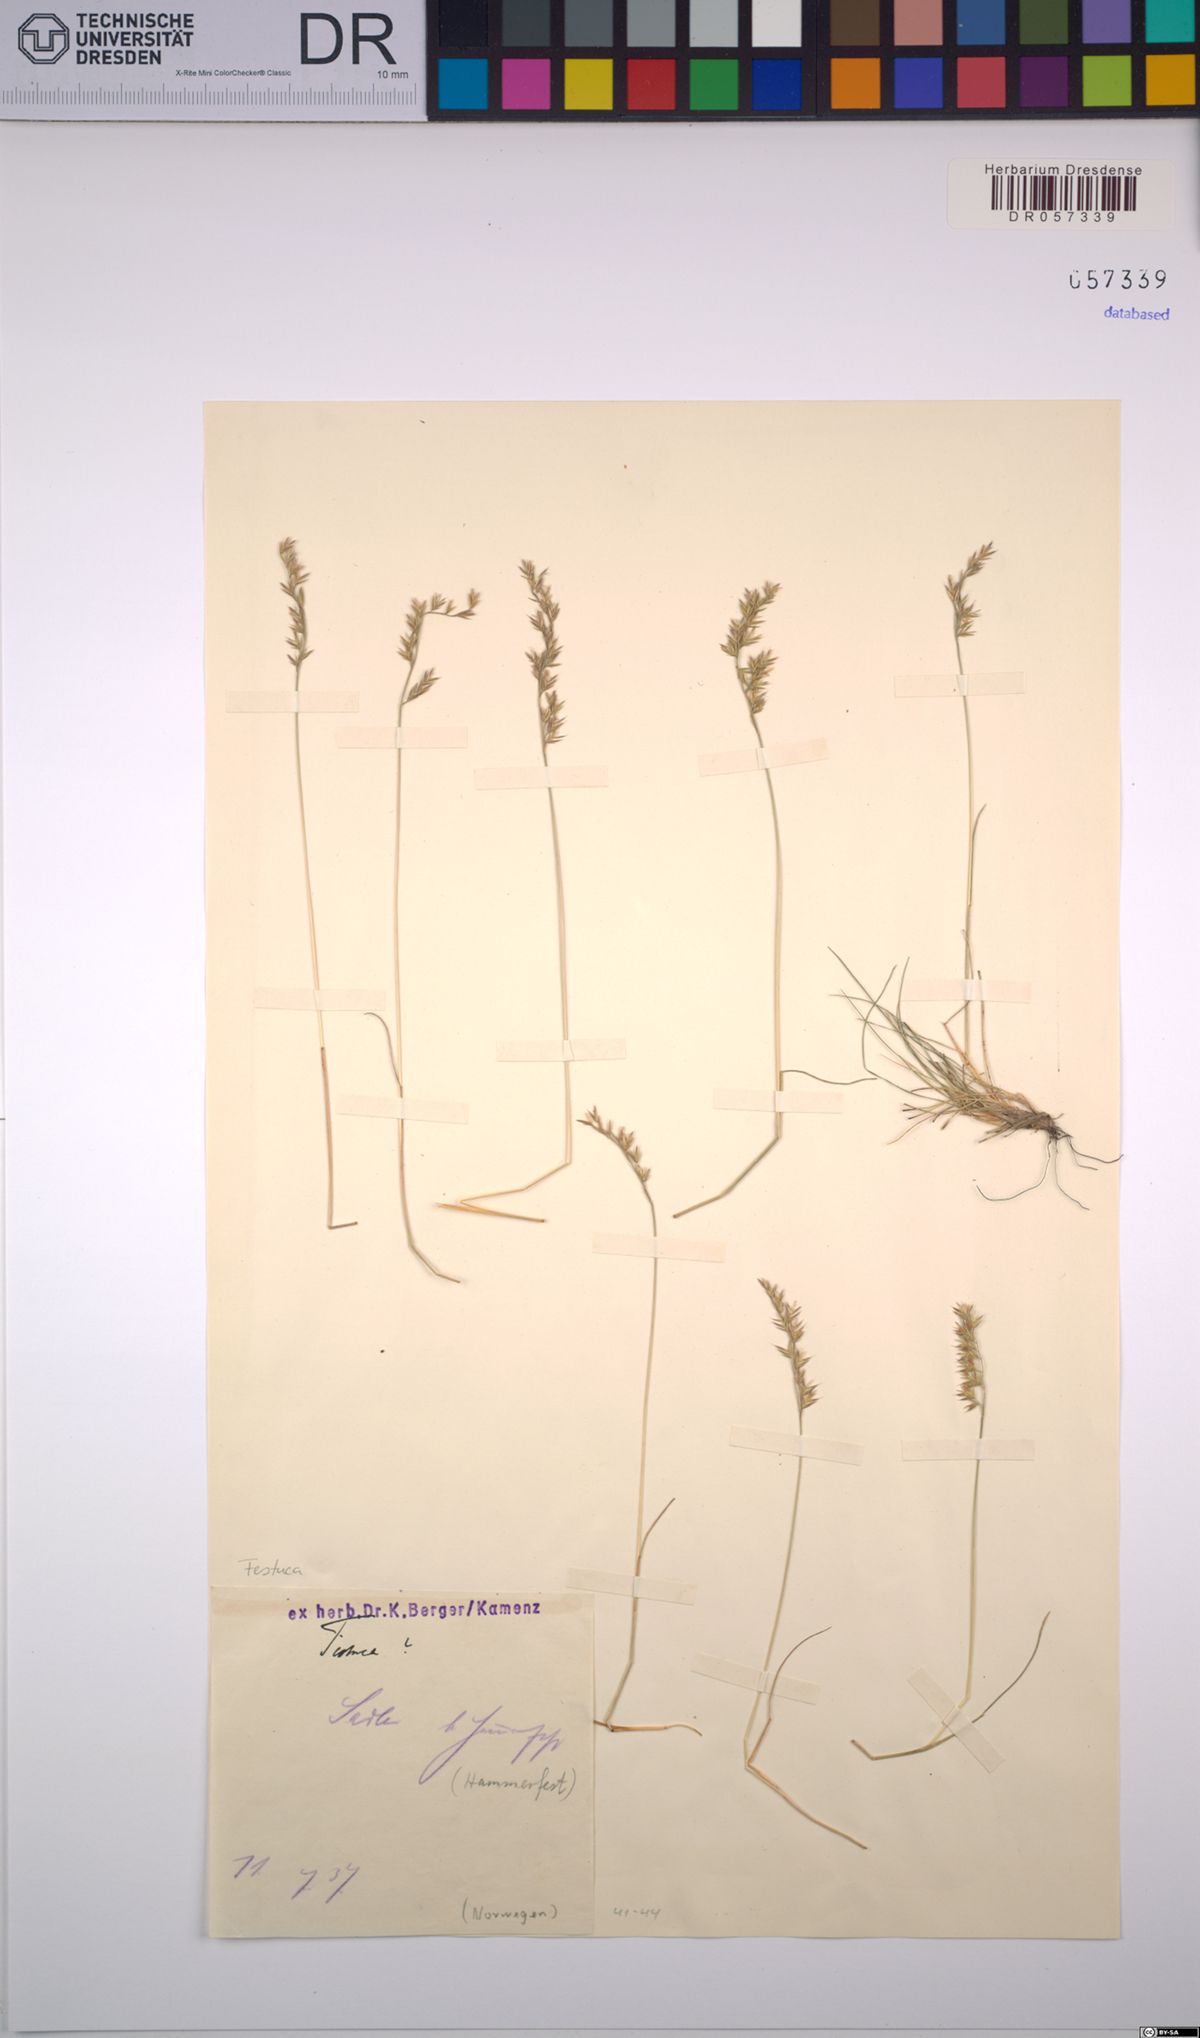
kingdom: Plantae
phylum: Tracheophyta
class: Liliopsida
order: Poales
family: Poaceae
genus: Festuca
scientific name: Festuca
